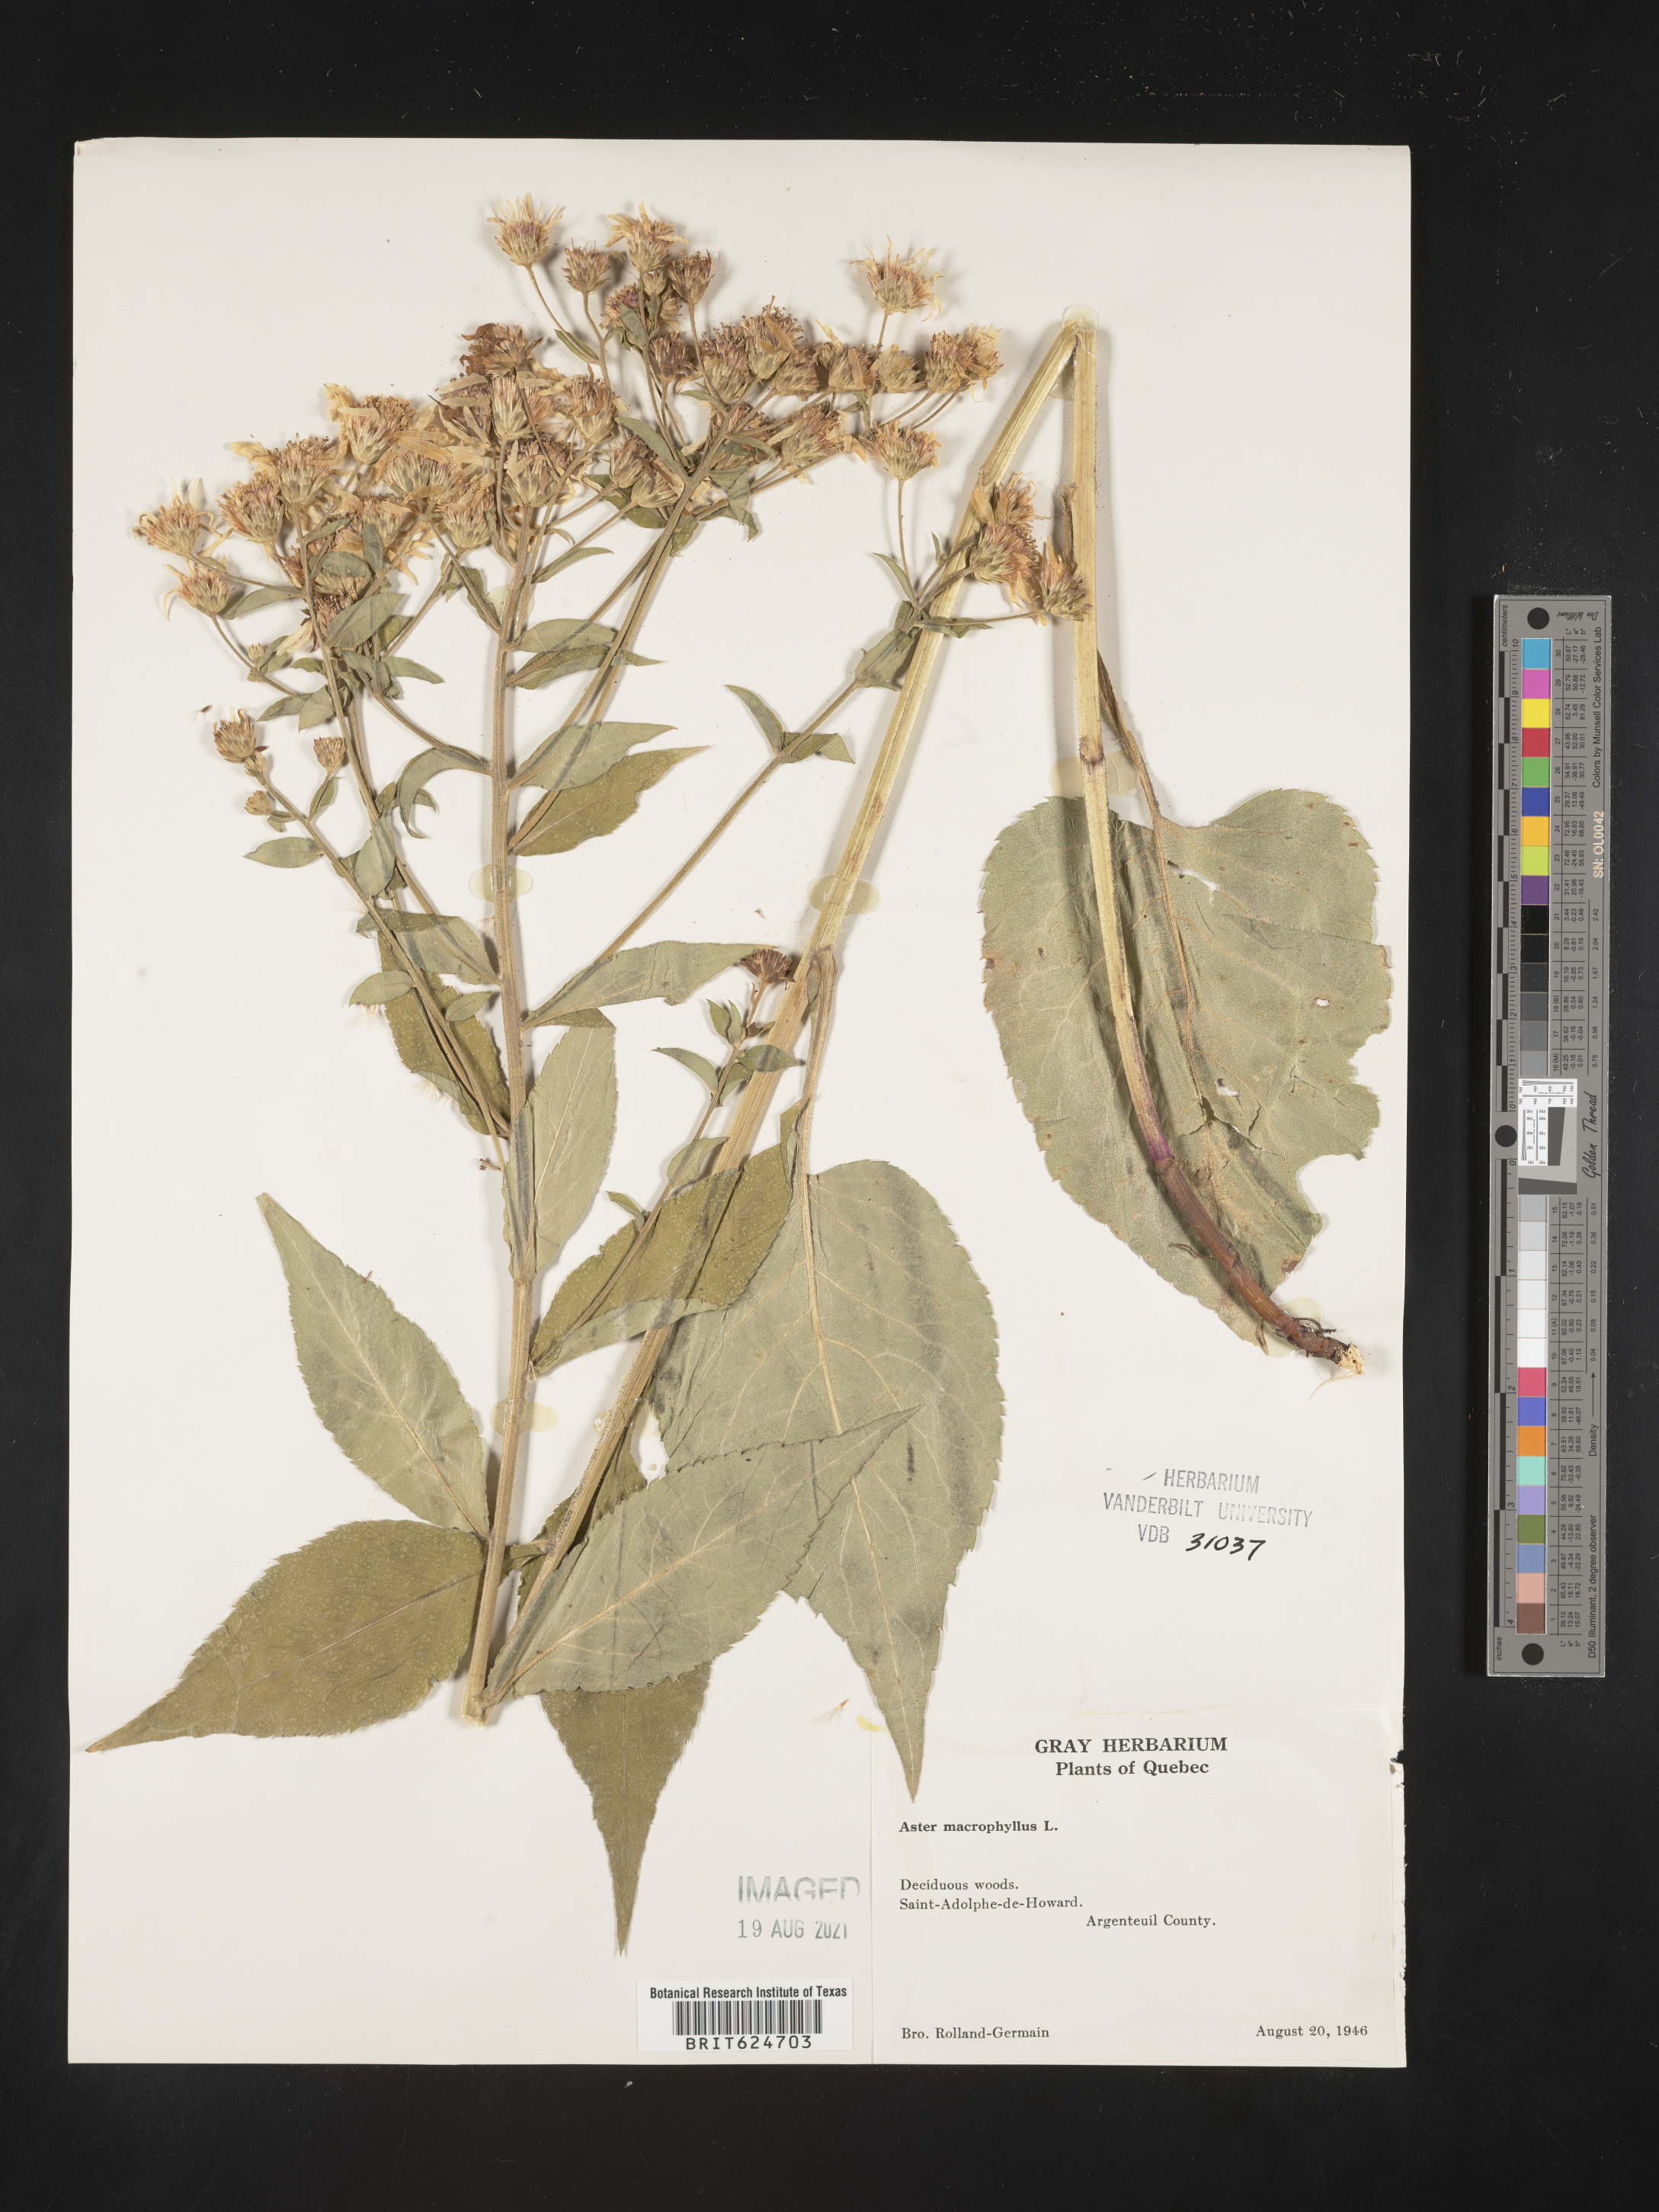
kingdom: Plantae
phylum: Tracheophyta
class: Magnoliopsida
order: Asterales
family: Asteraceae
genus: Eurybia
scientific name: Eurybia macrophylla
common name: Big-leaved aster
